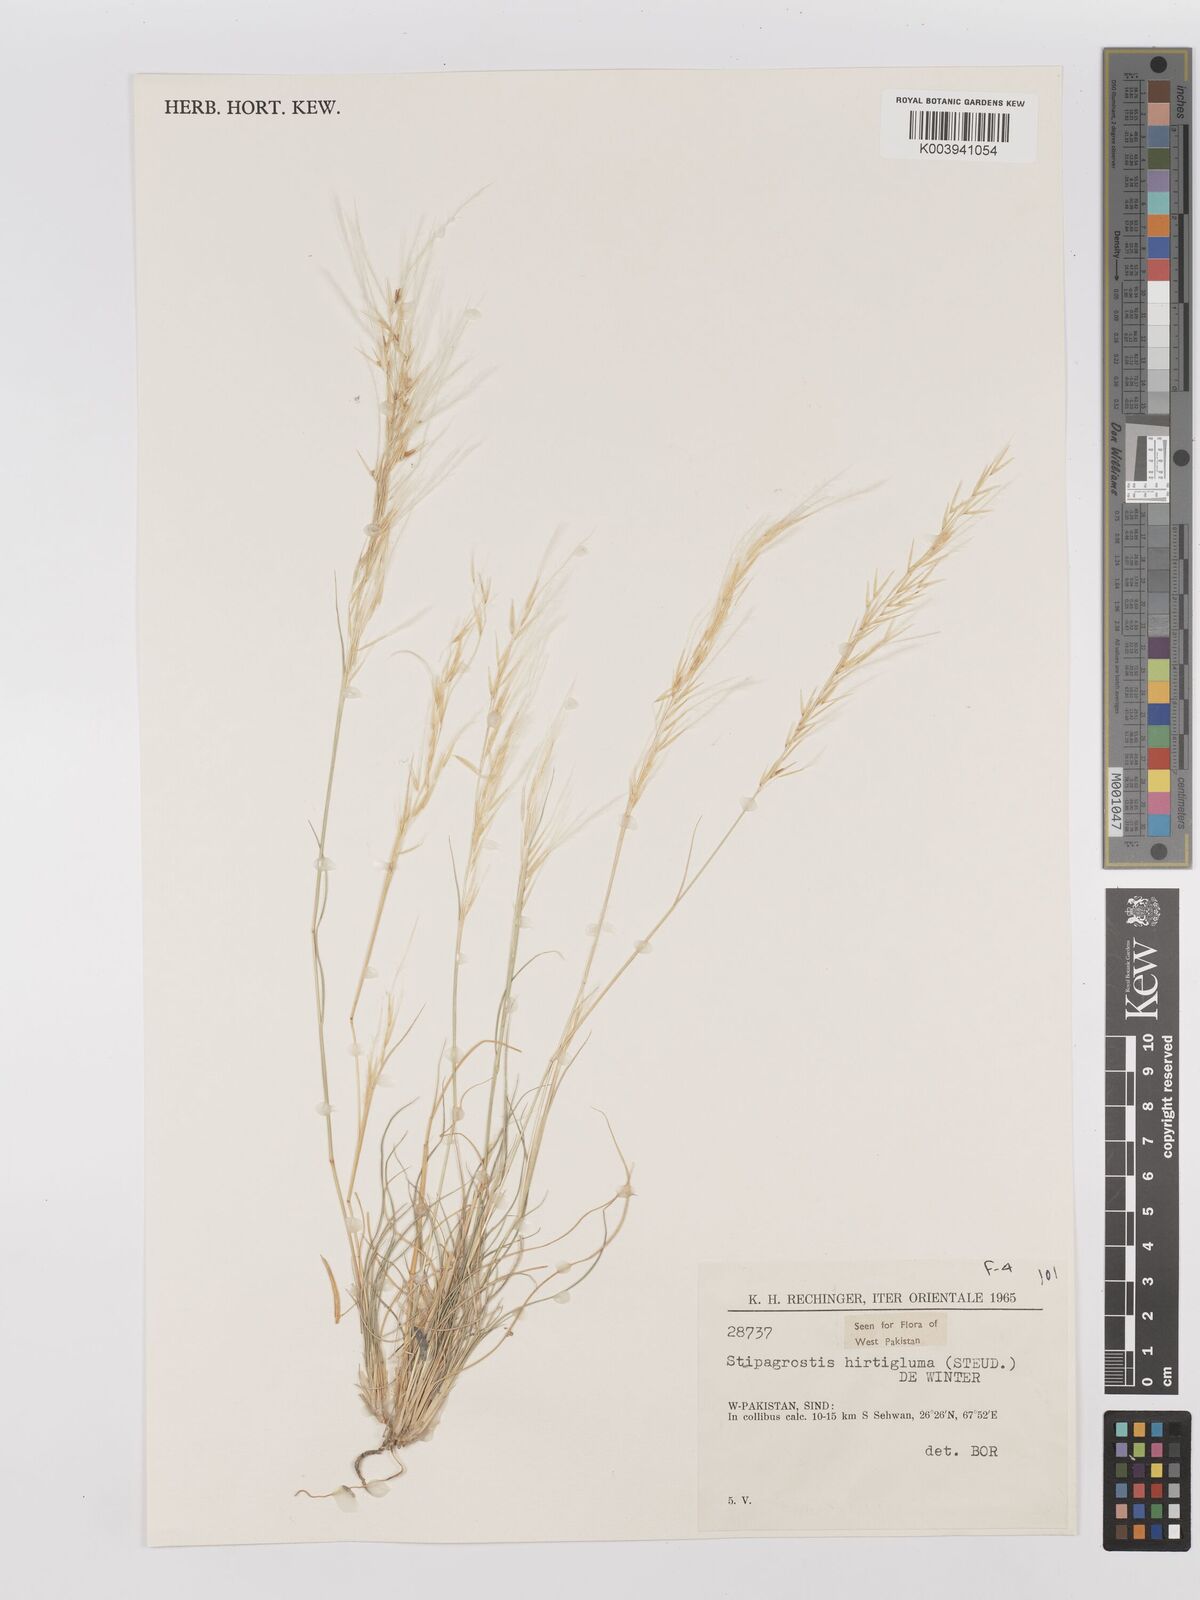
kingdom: Plantae
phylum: Tracheophyta
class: Liliopsida
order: Poales
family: Poaceae
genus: Stipagrostis
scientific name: Stipagrostis hirtigluma
